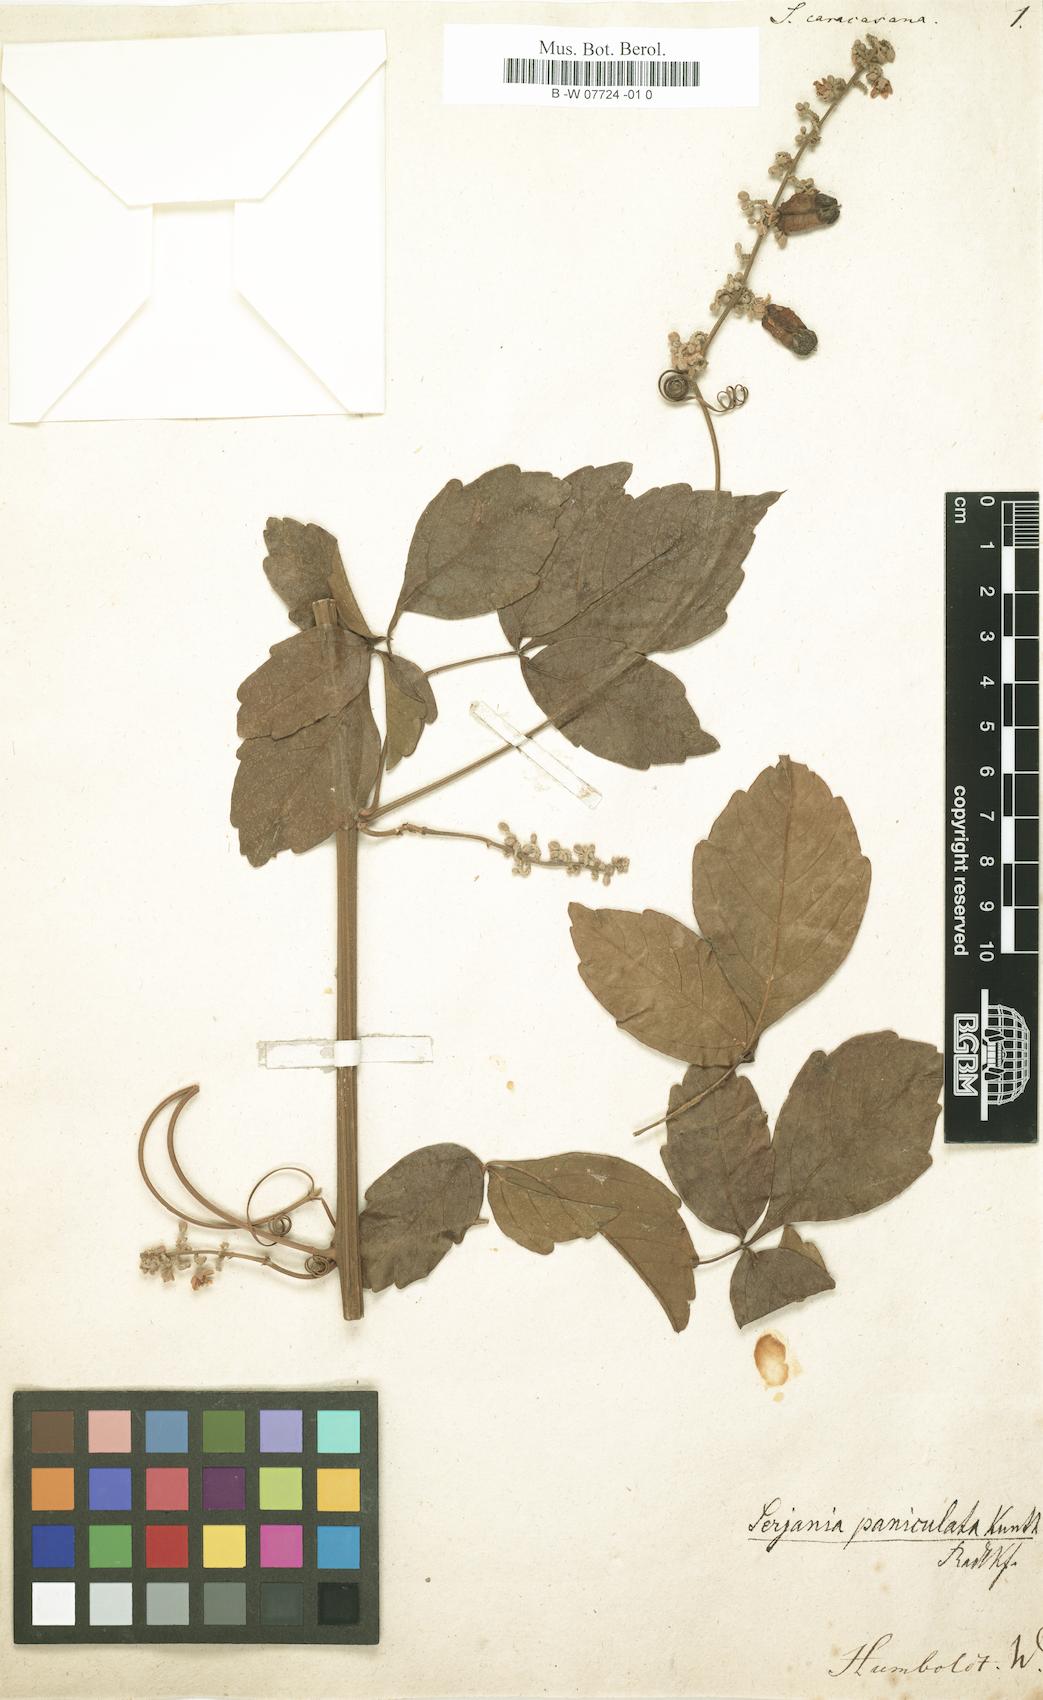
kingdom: Plantae
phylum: Tracheophyta
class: Magnoliopsida
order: Sapindales
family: Sapindaceae
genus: Serjania
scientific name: Serjania caracasana
